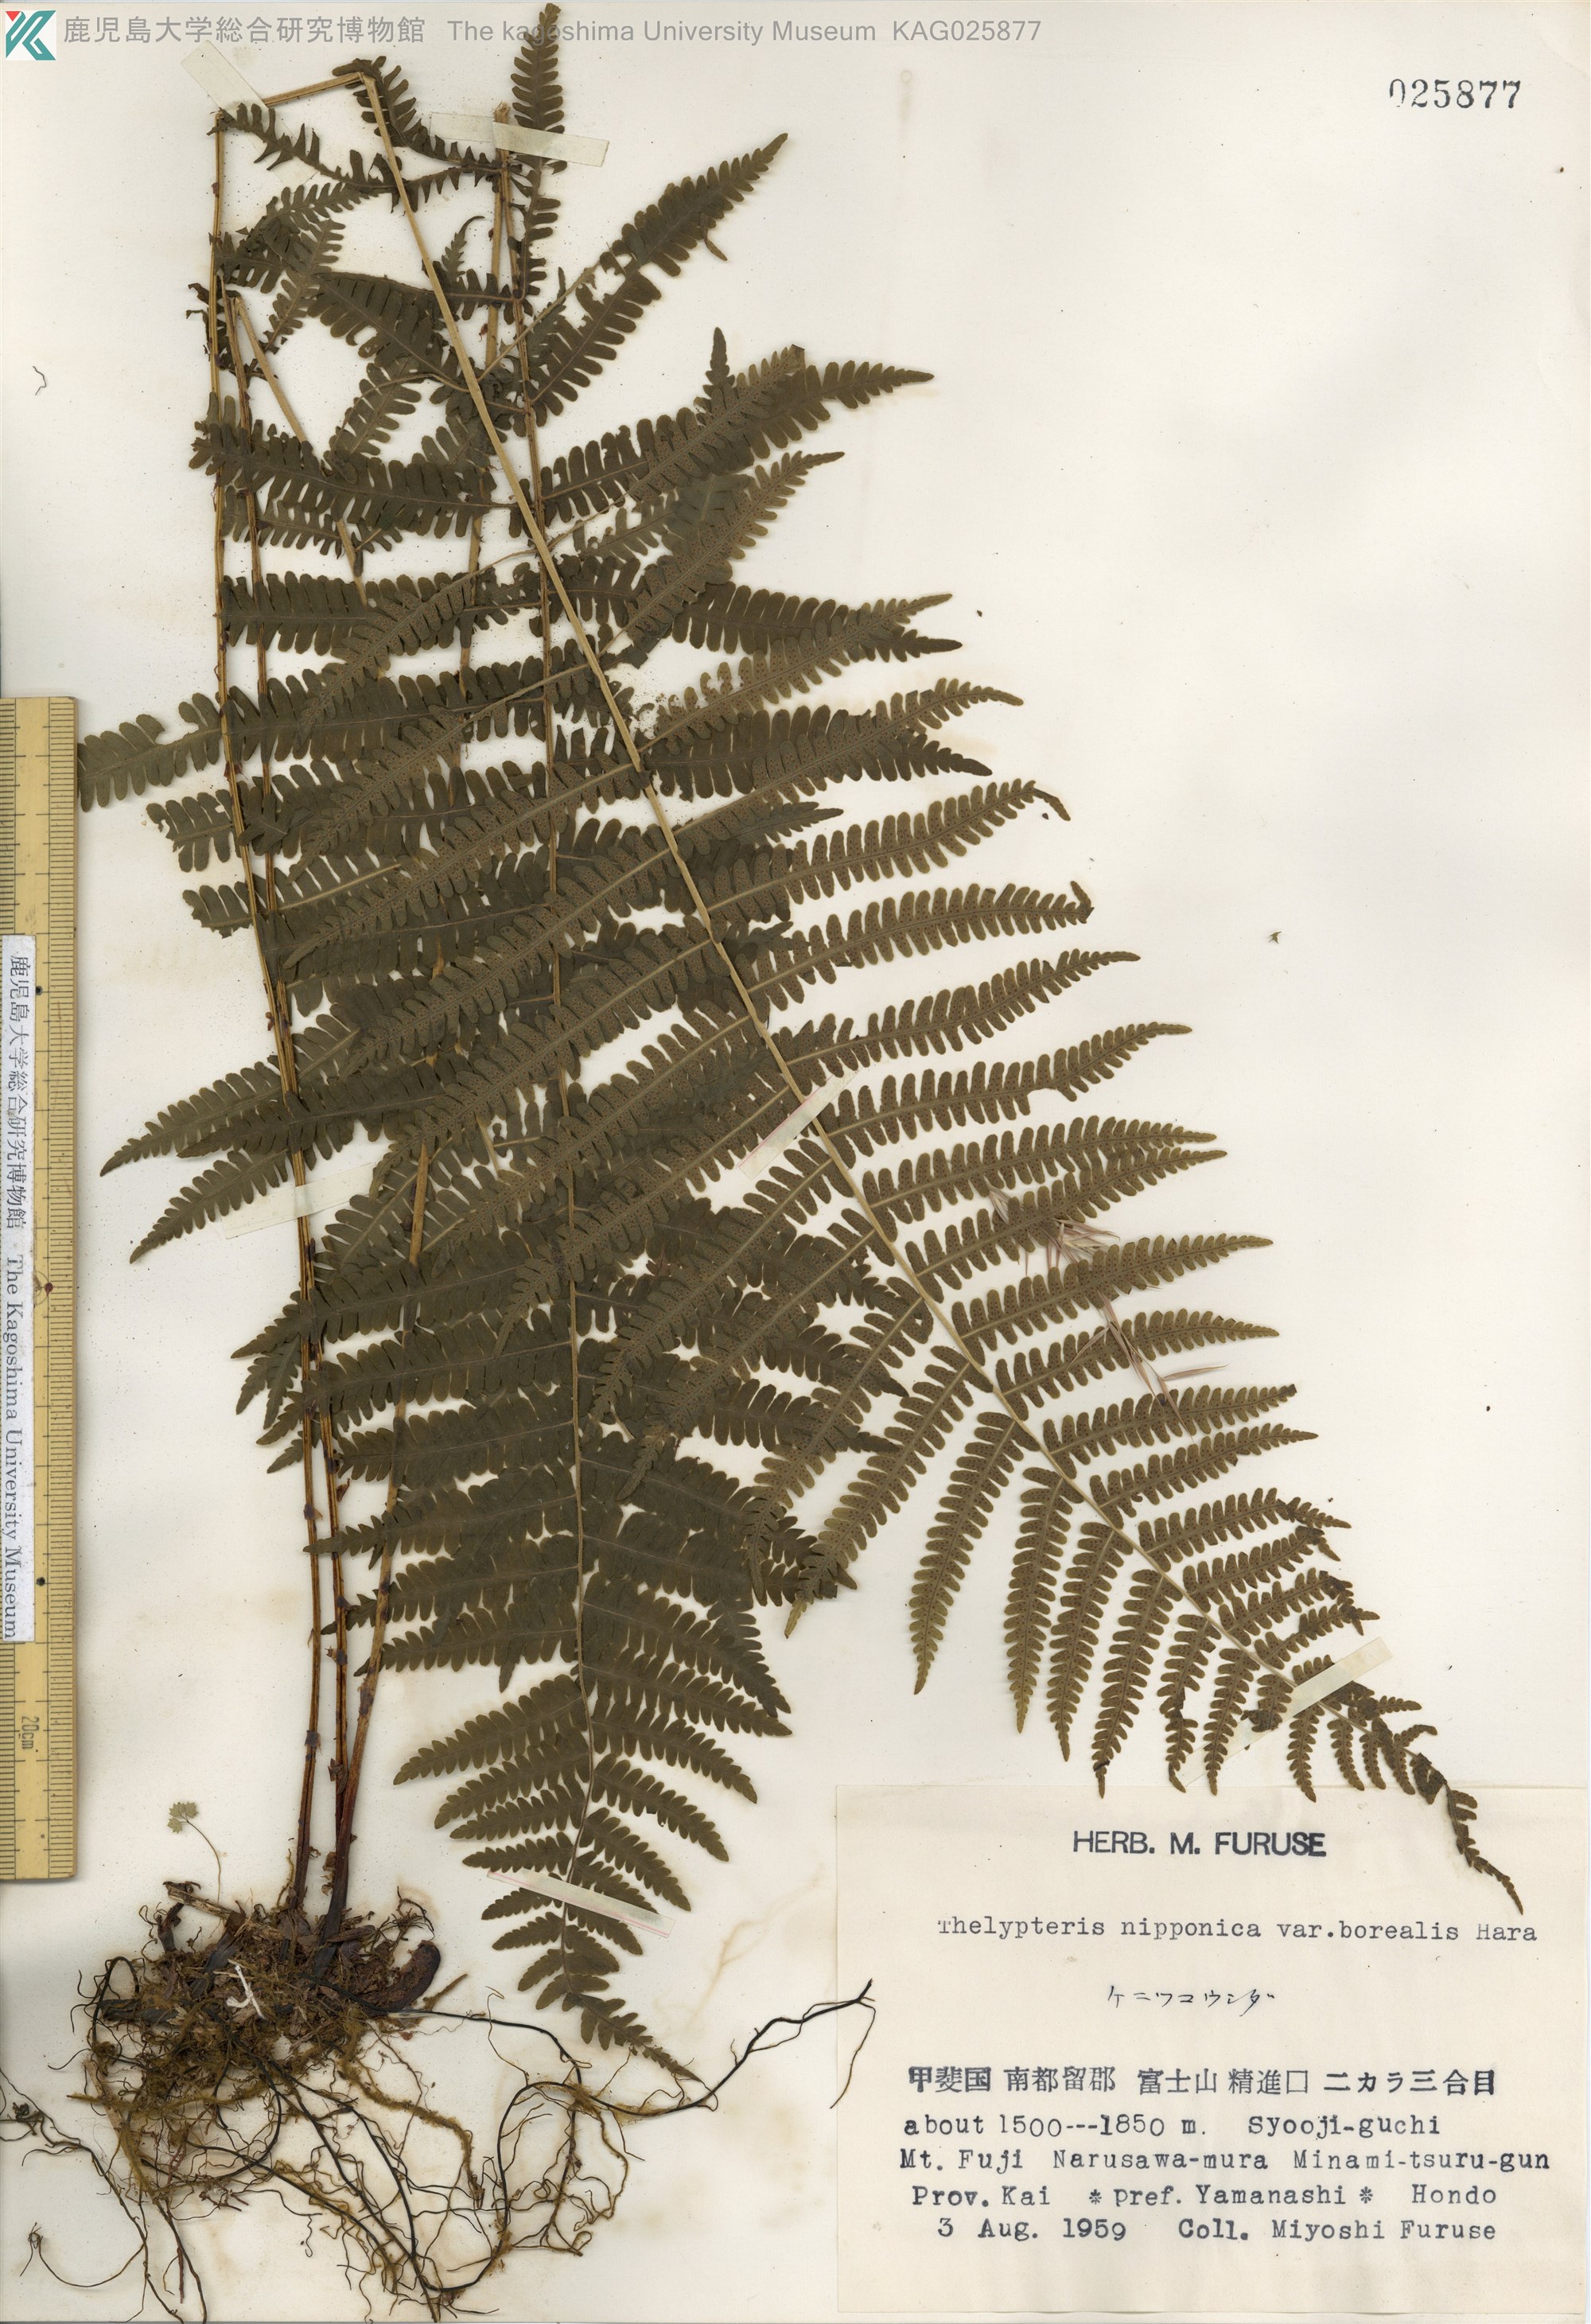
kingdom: Plantae
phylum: Tracheophyta
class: Polypodiopsida
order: Polypodiales
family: Thelypteridaceae
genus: Coryphopteris
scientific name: Coryphopteris nipponica
